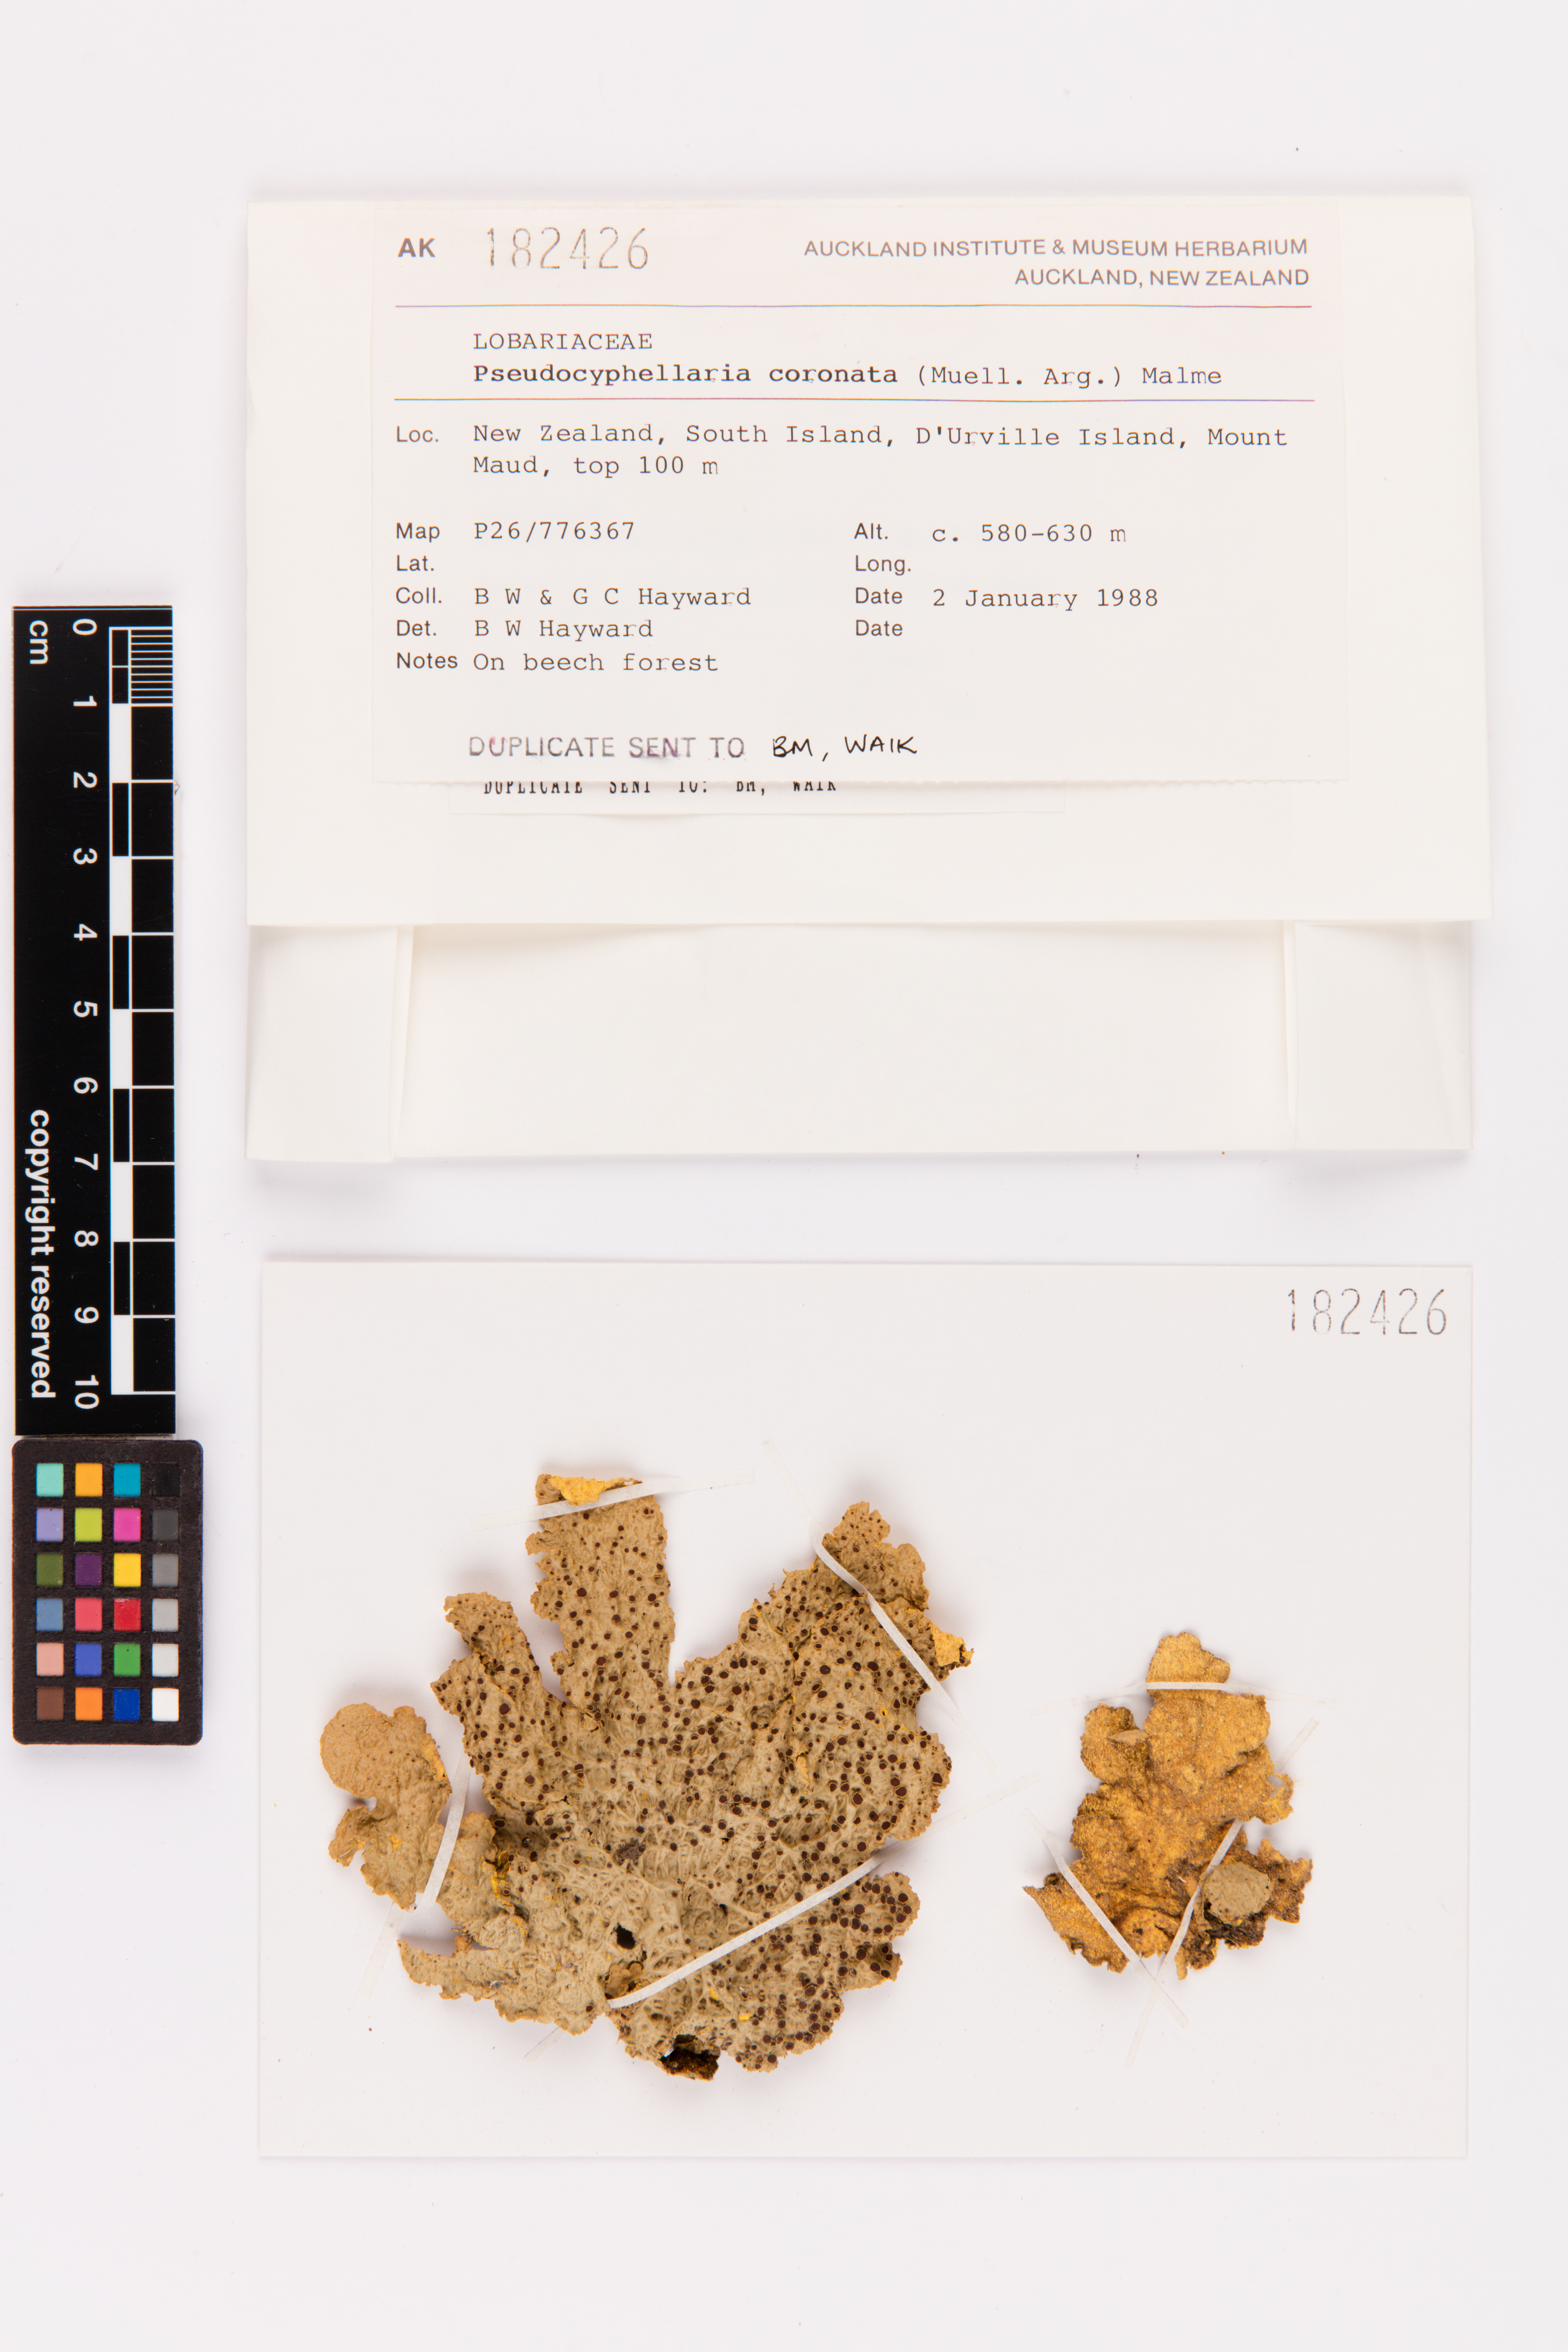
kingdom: Fungi
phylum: Ascomycota
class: Lecanoromycetes
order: Peltigerales
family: Lobariaceae
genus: Yarrumia
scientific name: Yarrumia coronata
